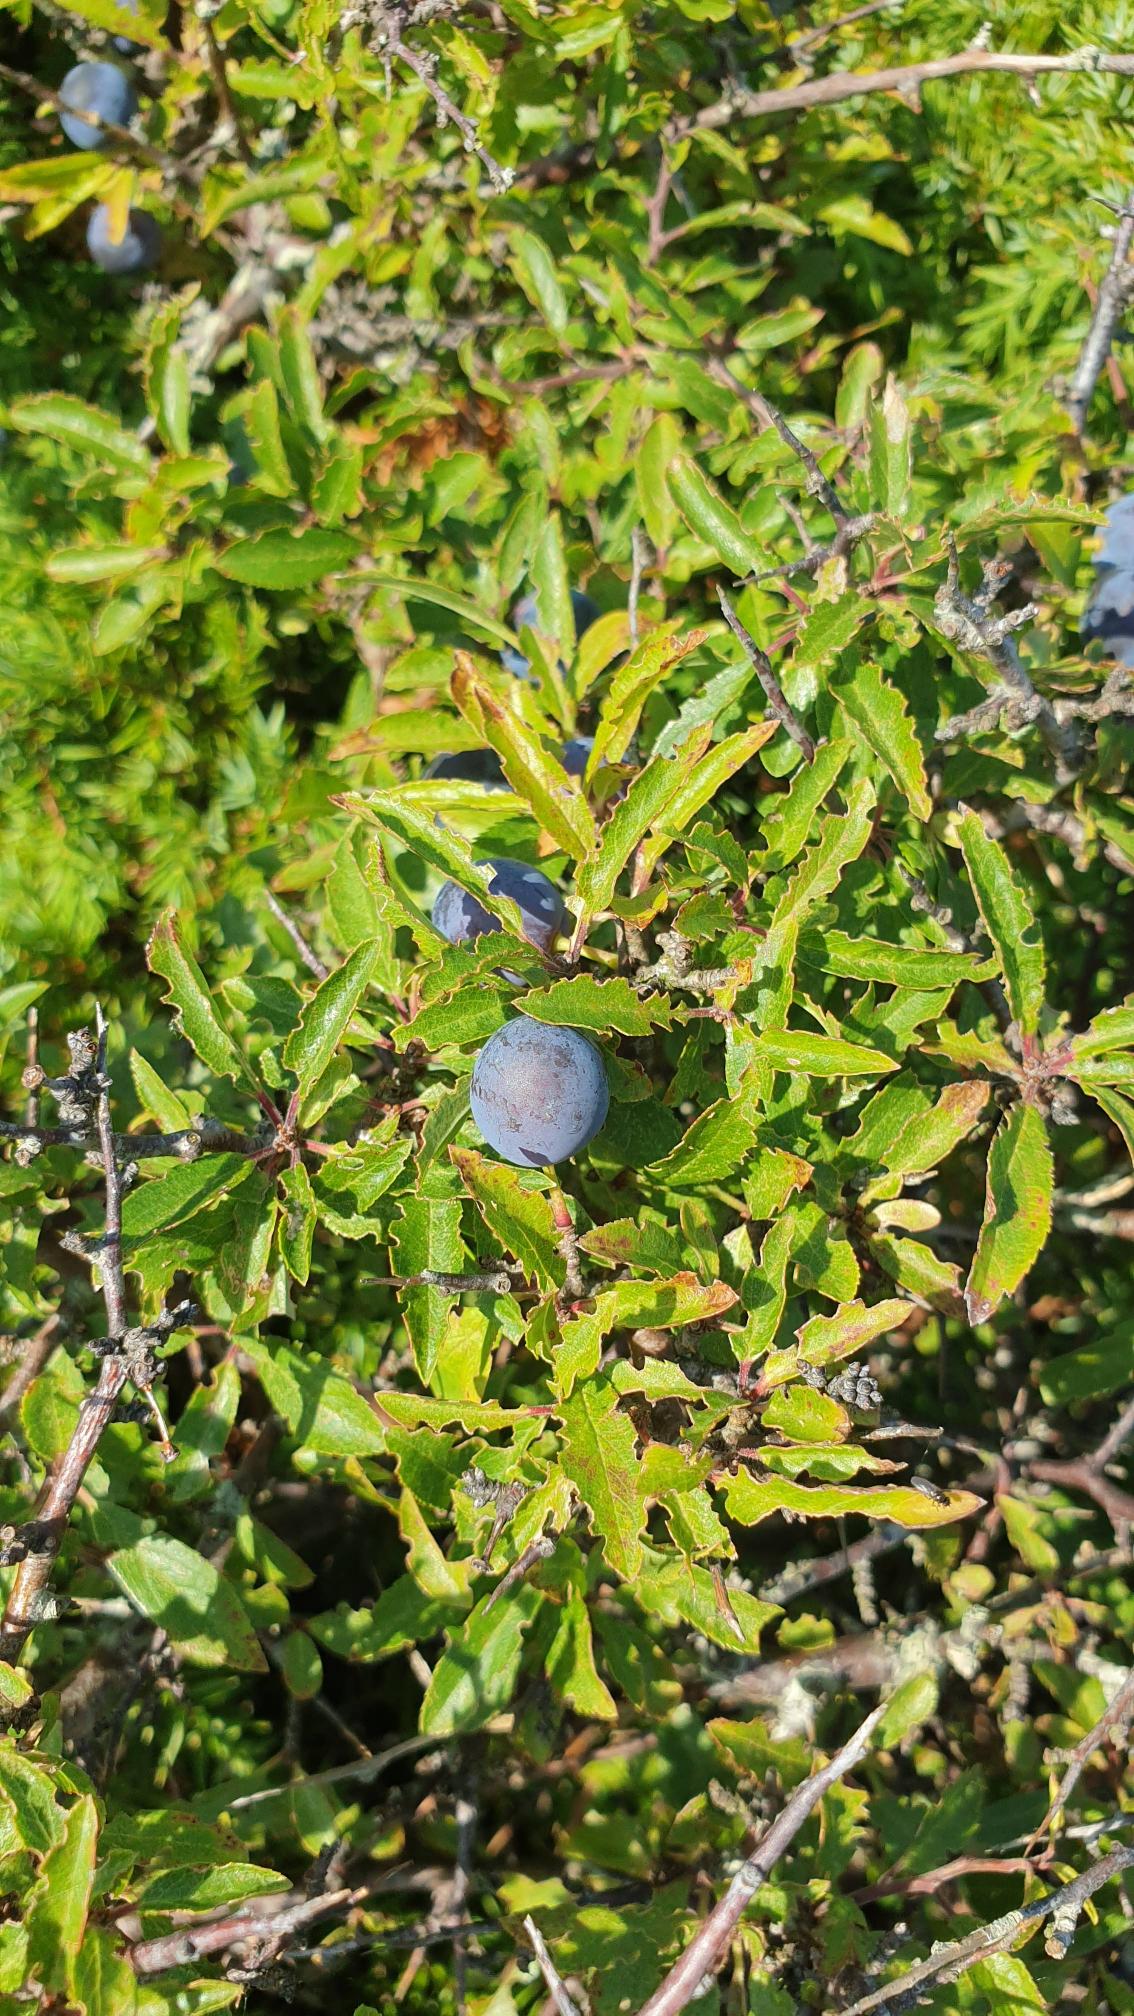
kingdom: Plantae
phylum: Tracheophyta
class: Magnoliopsida
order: Rosales
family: Rosaceae
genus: Prunus
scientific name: Prunus spinosa
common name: Slåen
